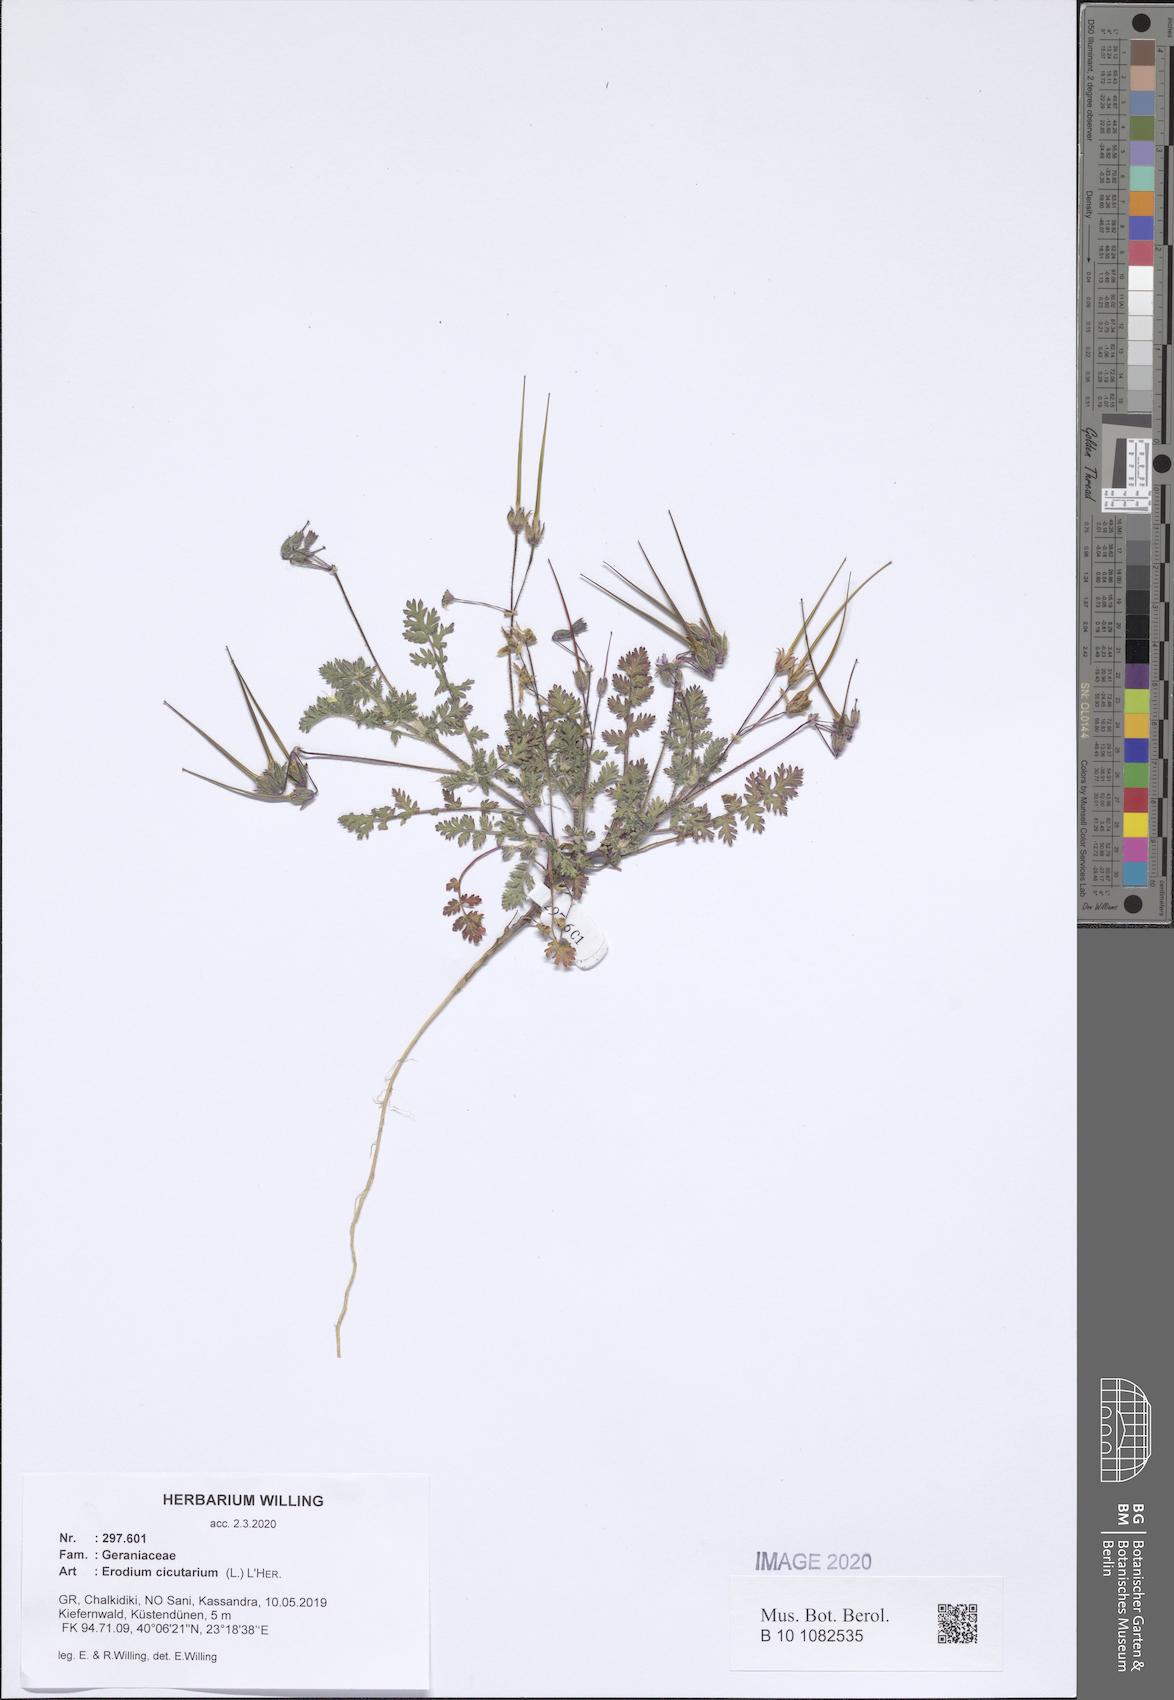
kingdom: Plantae
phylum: Tracheophyta
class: Magnoliopsida
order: Geraniales
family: Geraniaceae
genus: Erodium
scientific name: Erodium cicutarium
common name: Common stork's-bill
